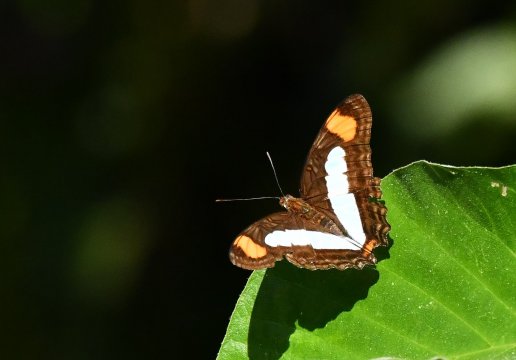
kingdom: Animalia
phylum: Arthropoda
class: Insecta
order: Lepidoptera
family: Nymphalidae
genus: Limenitis
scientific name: Limenitis serpa
